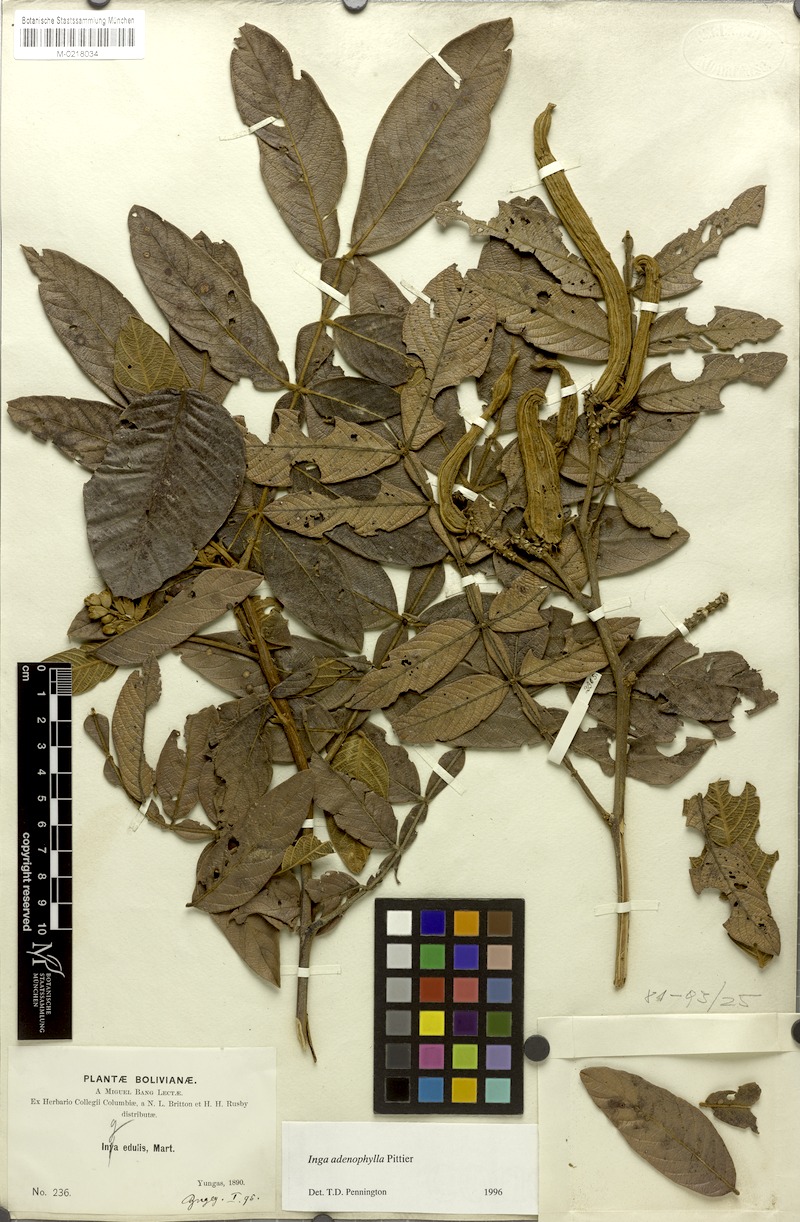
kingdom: Plantae
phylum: Tracheophyta
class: Magnoliopsida
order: Fabales
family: Fabaceae
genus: Inga
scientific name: Inga adenophylla
